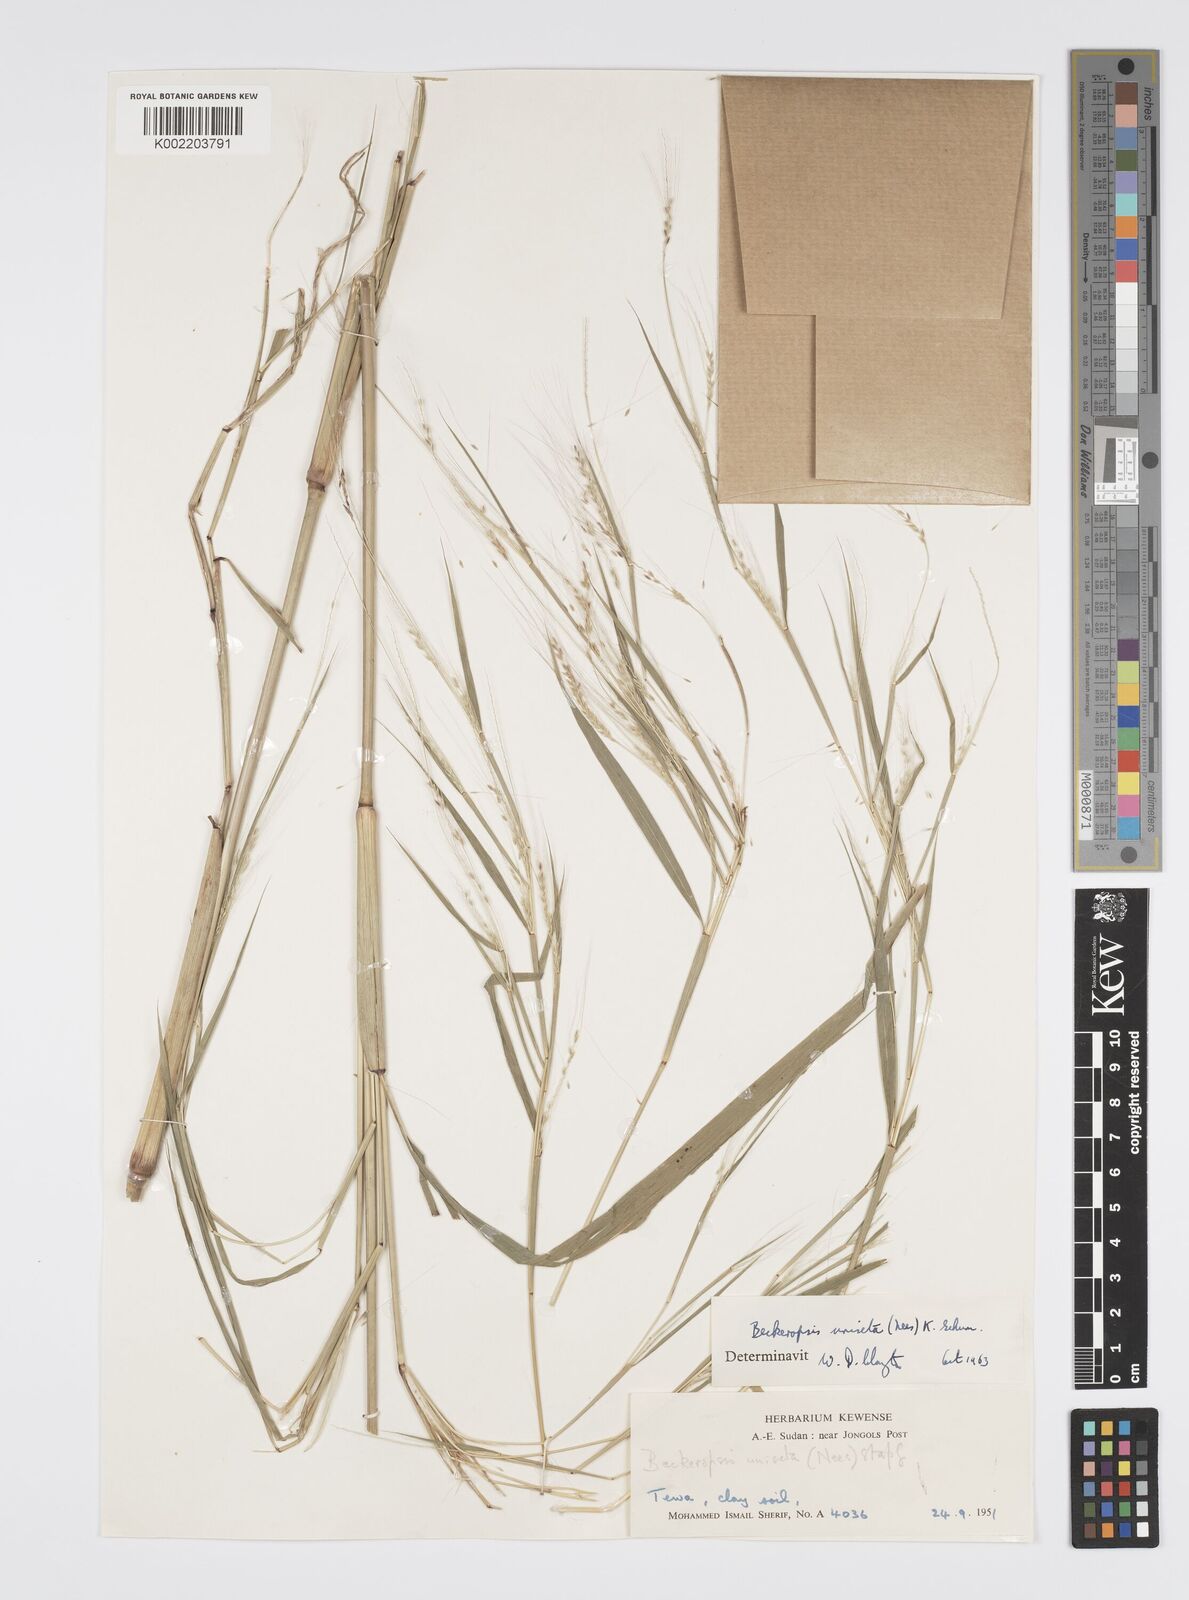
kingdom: Plantae
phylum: Tracheophyta
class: Liliopsida
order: Poales
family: Poaceae
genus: Cenchrus
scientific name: Cenchrus unisetus
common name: Natal grass
